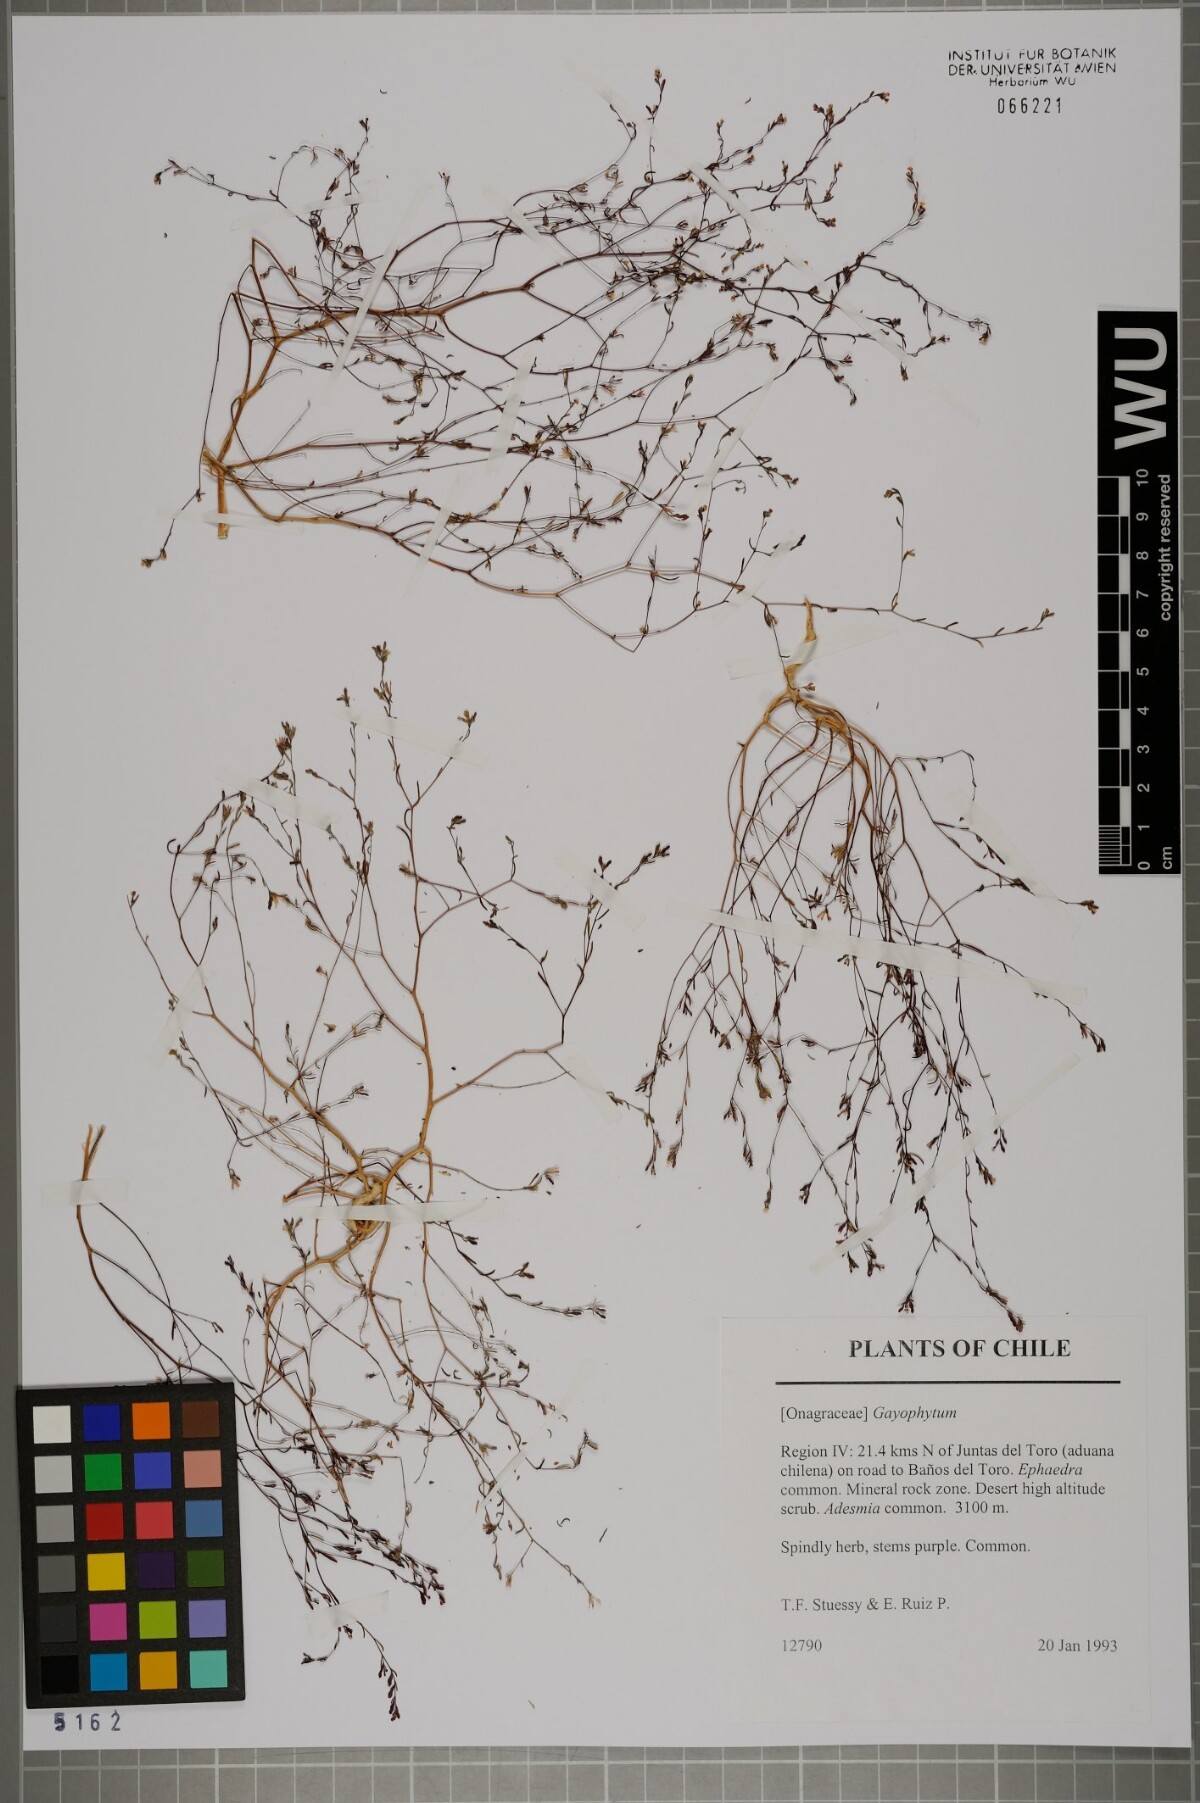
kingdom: Plantae
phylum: Tracheophyta
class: Magnoliopsida
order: Myrtales
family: Onagraceae
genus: Gayophytum
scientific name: Gayophytum
